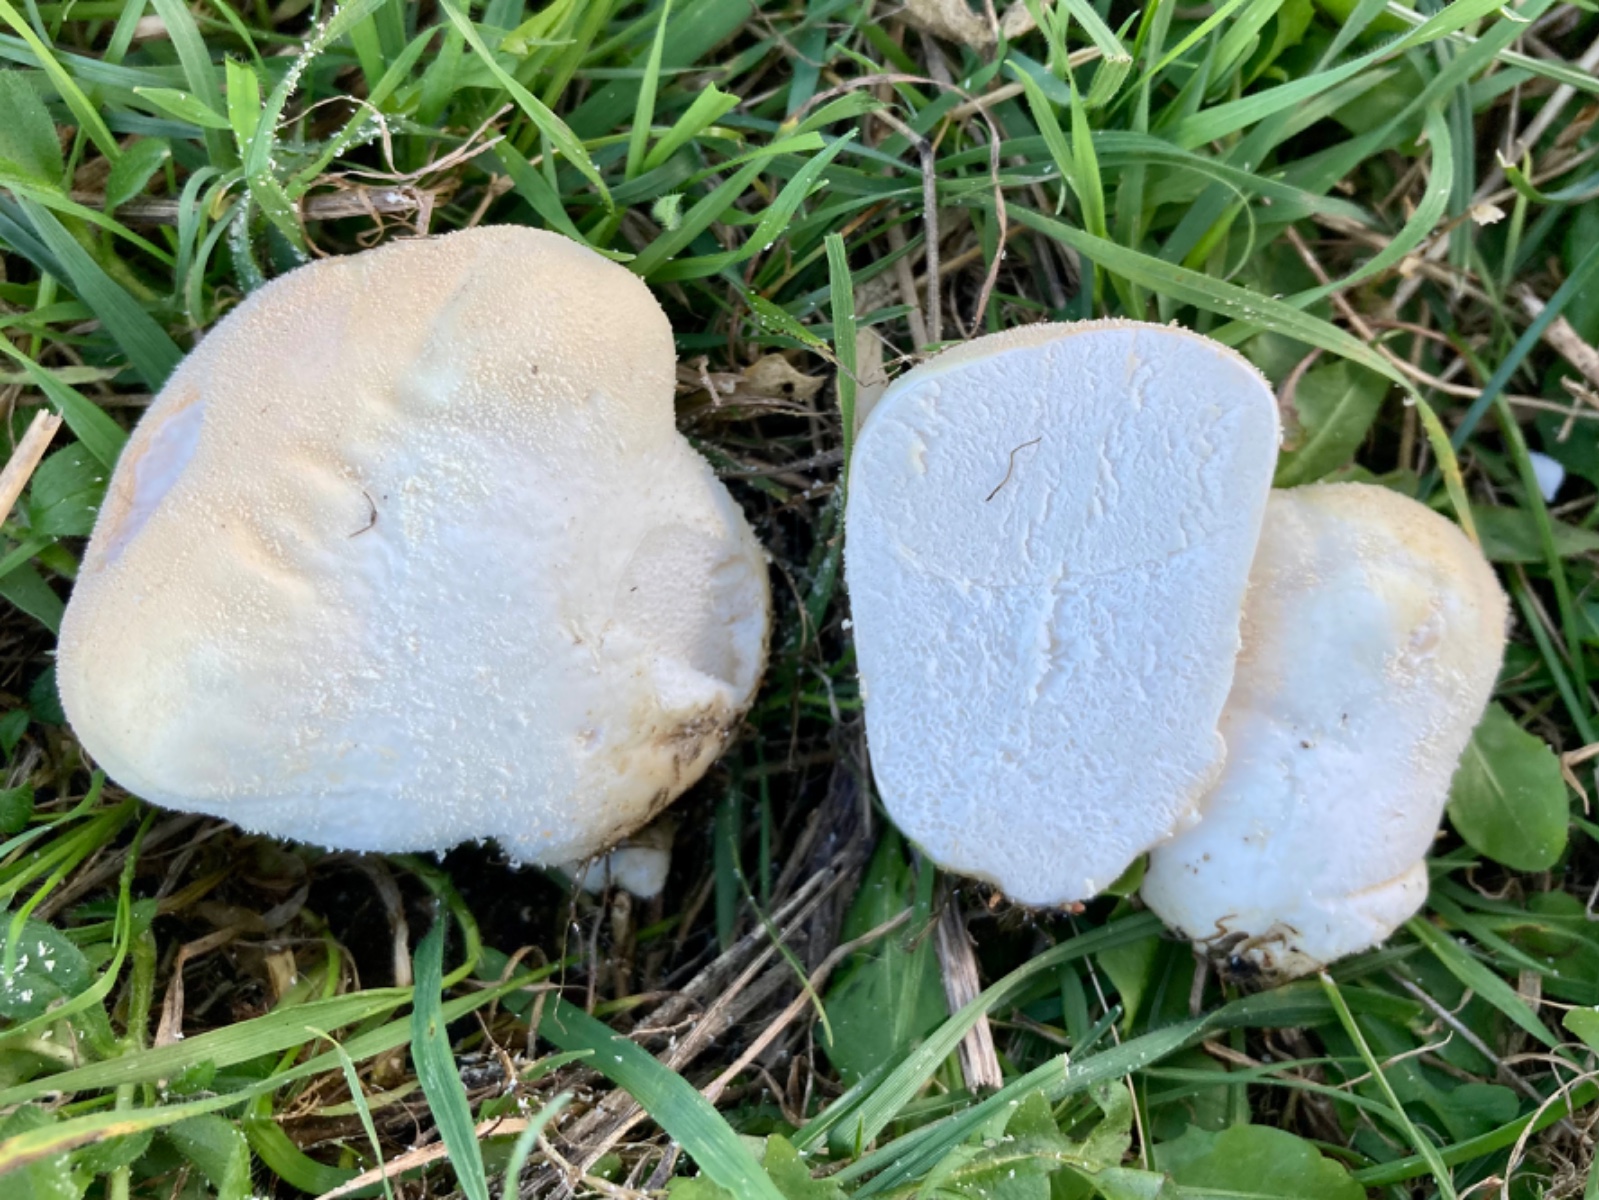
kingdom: Fungi
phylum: Basidiomycota
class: Agaricomycetes
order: Agaricales
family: Lycoperdaceae
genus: Lycoperdon
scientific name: Lycoperdon pratense
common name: flad støvbold
